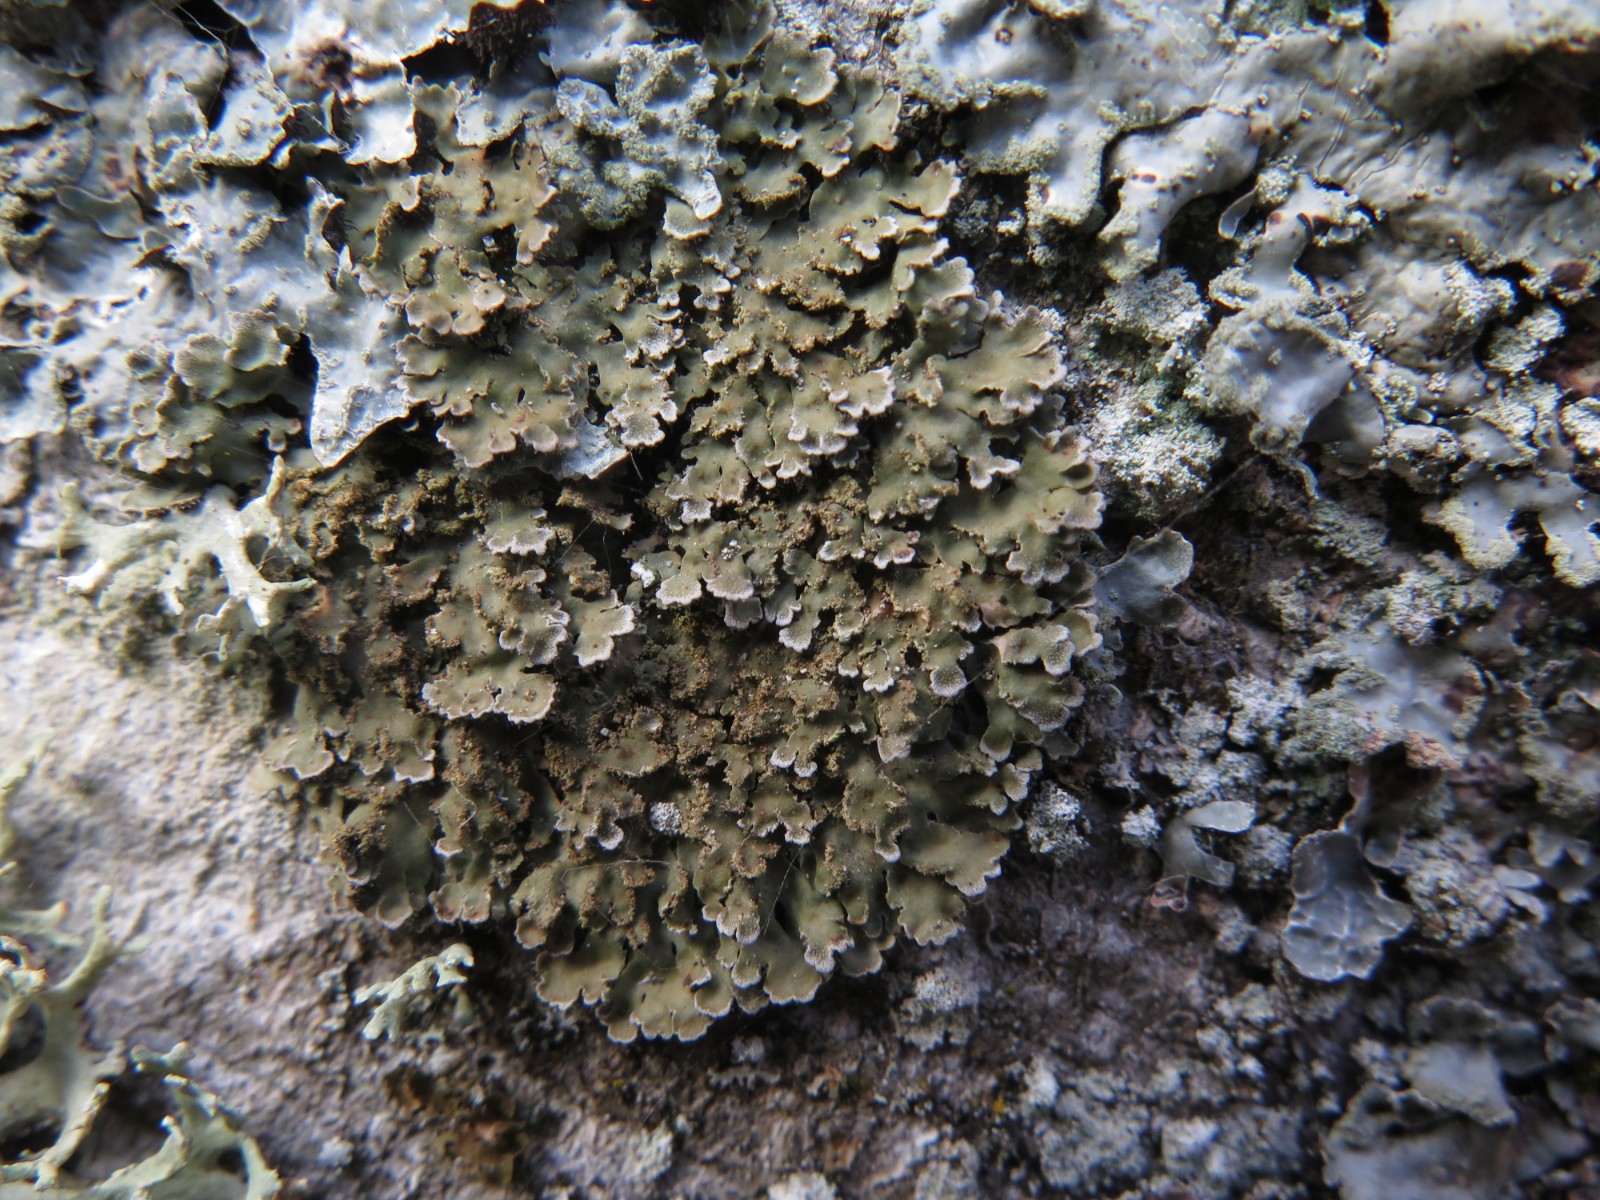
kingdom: Fungi
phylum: Ascomycota
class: Lecanoromycetes
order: Caliciales
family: Physciaceae
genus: Physconia
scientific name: Physconia perisidiosa
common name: liden dugrosetlav
